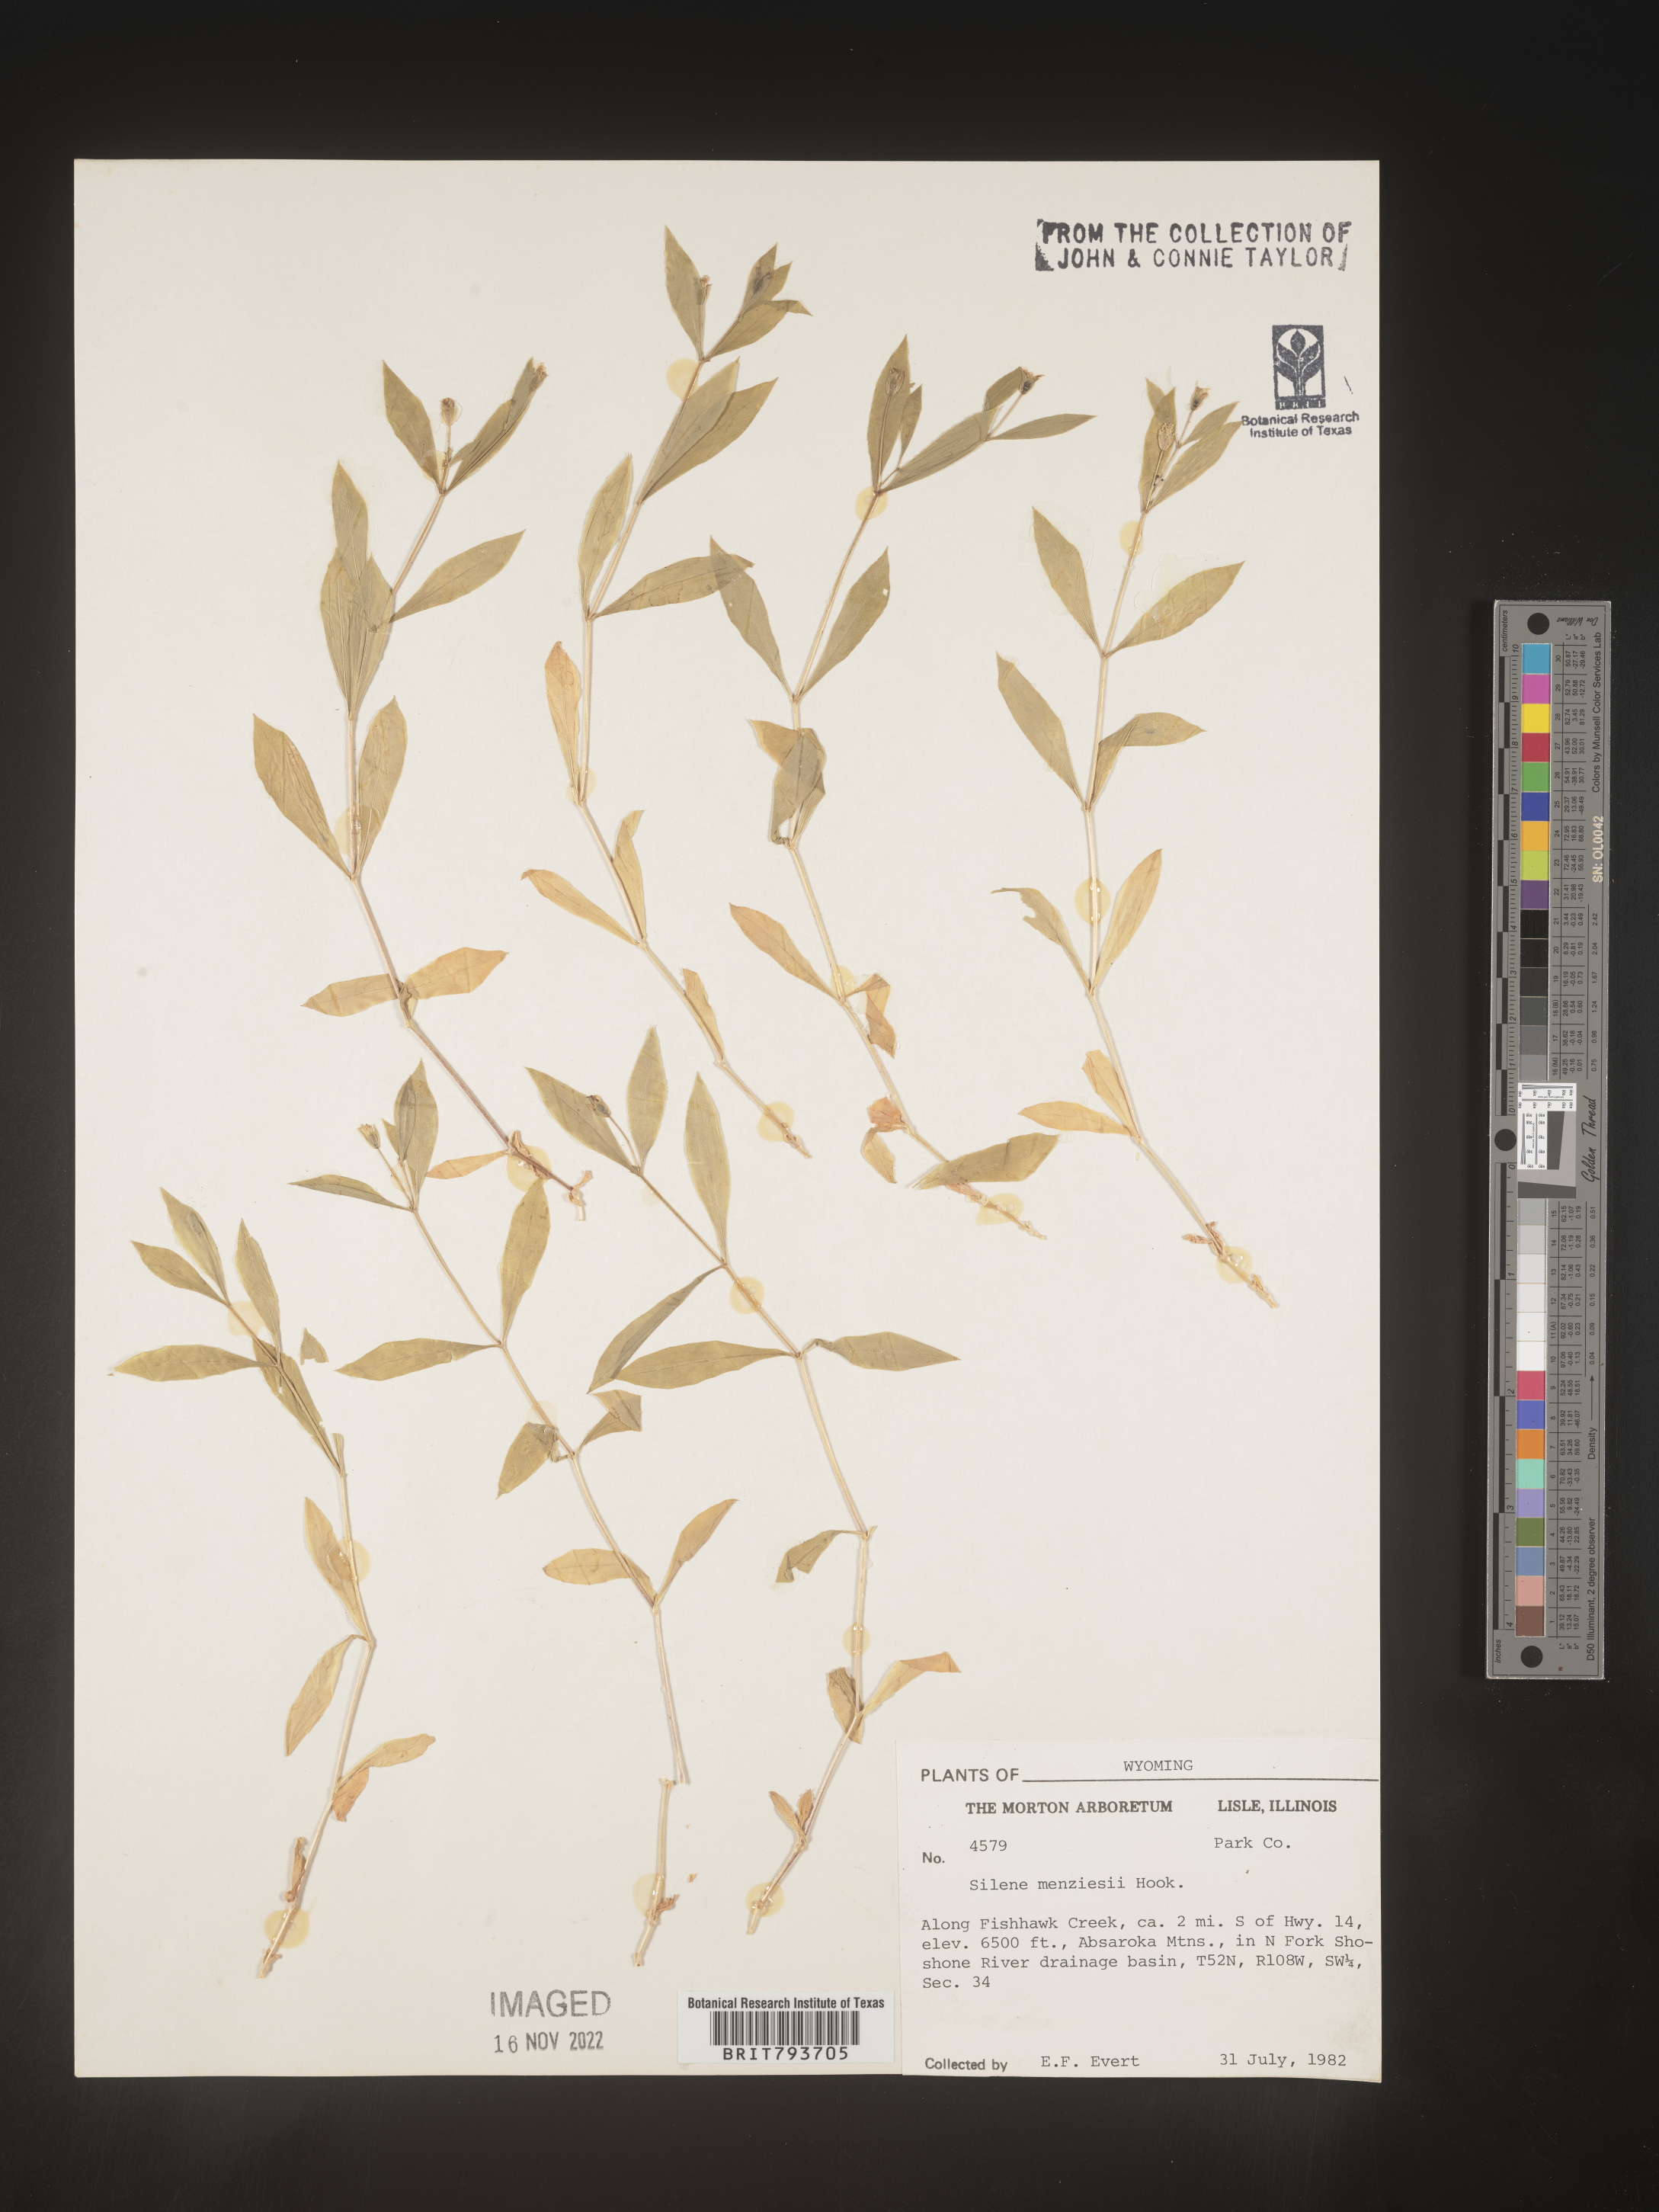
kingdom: Plantae
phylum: Tracheophyta
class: Magnoliopsida
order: Caryophyllales
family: Caryophyllaceae
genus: Silene
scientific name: Silene menziesii
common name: Menzies's catchfly
